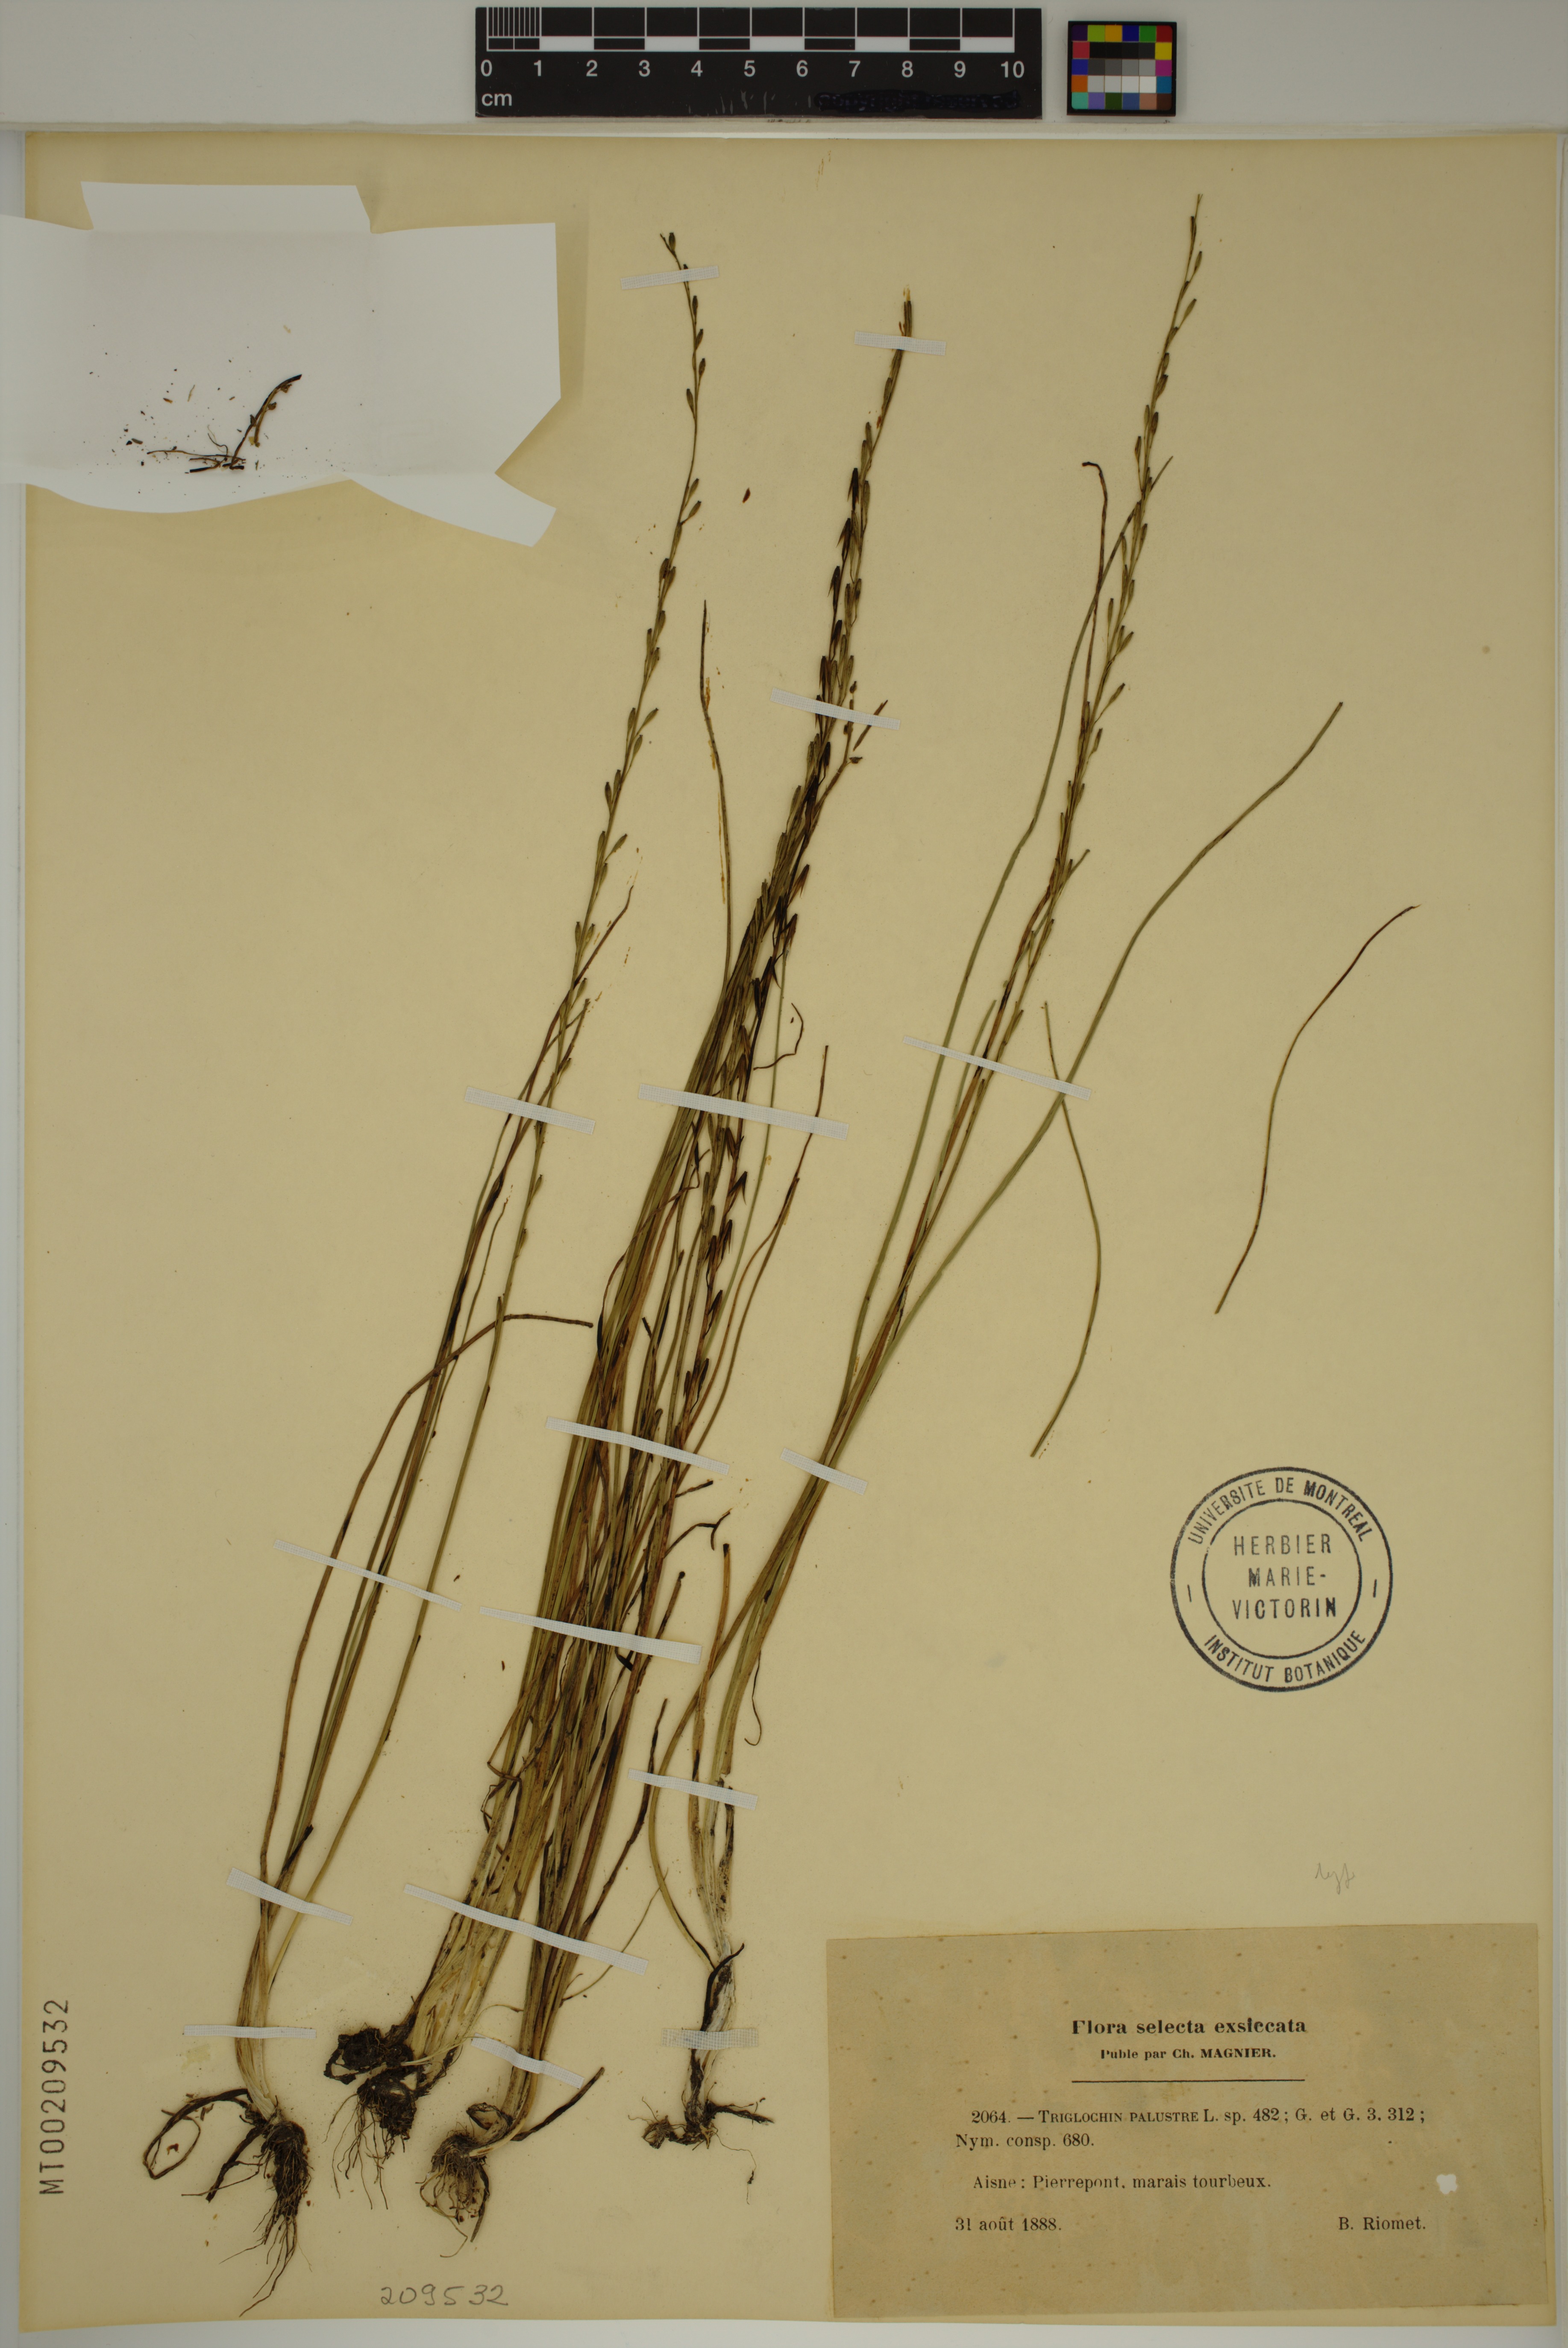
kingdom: Plantae
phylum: Tracheophyta
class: Liliopsida
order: Alismatales
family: Juncaginaceae
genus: Triglochin
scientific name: Triglochin palustris
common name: Marsh arrowgrass
